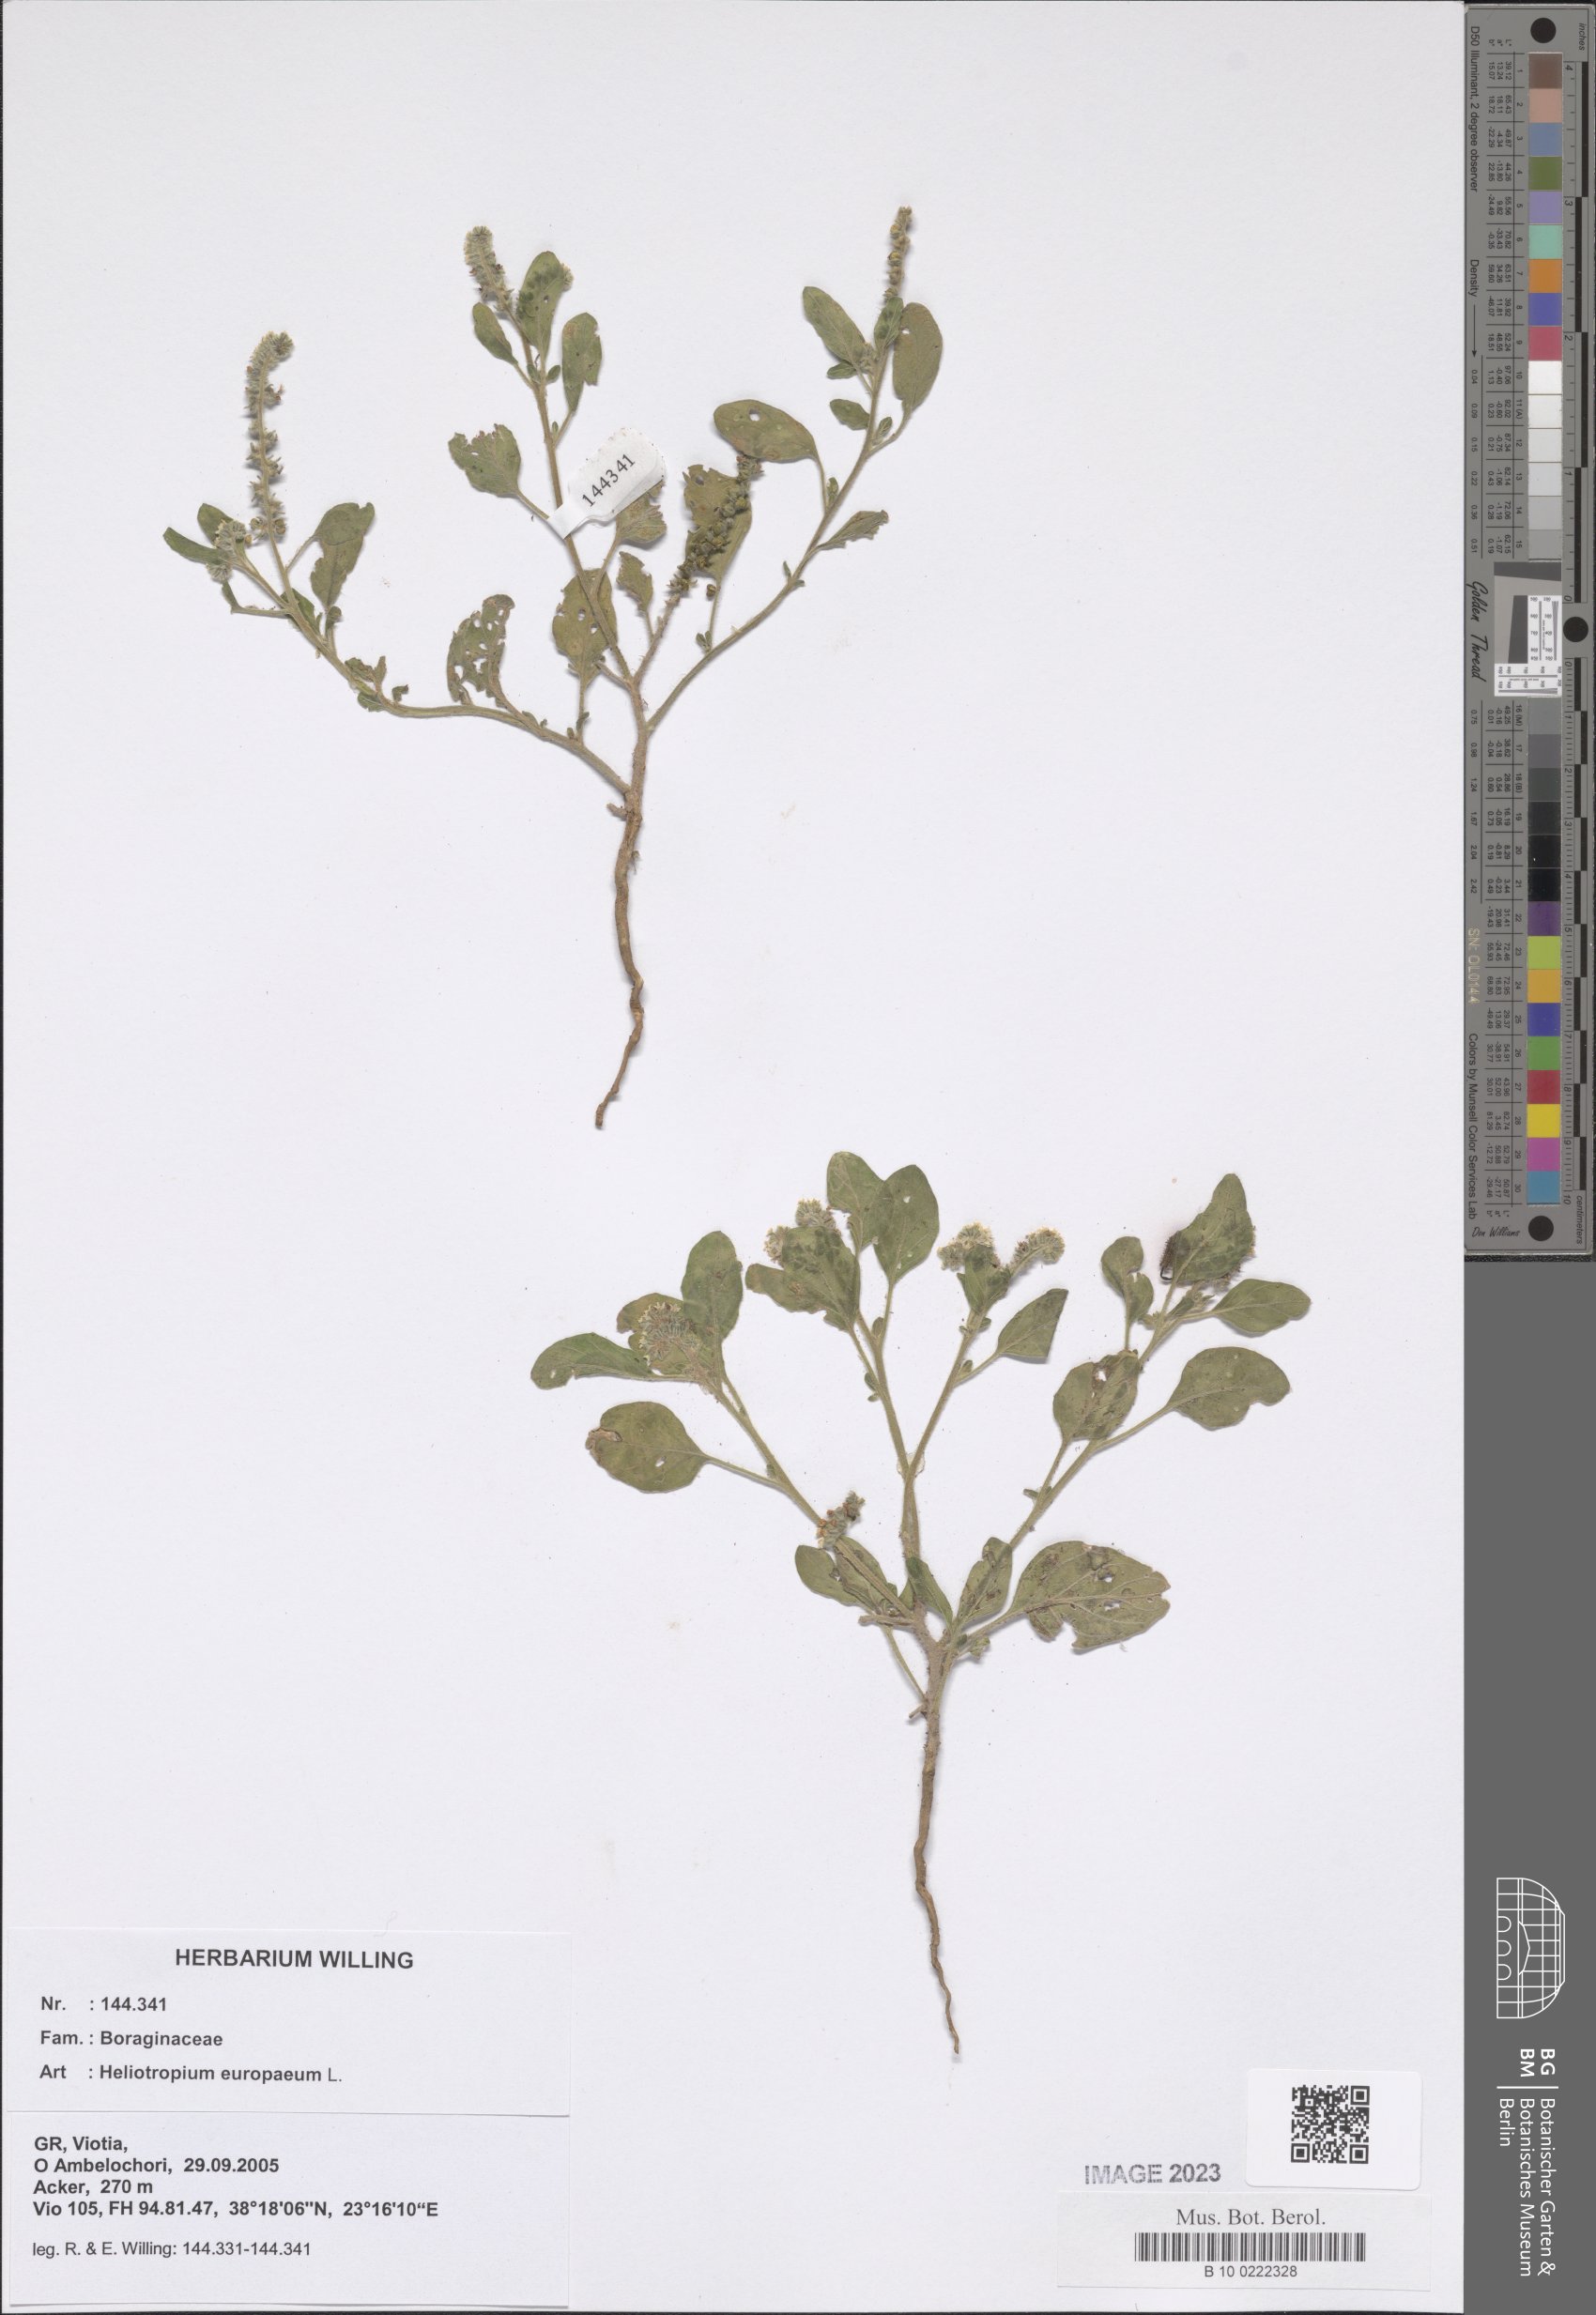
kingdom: Plantae
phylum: Tracheophyta
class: Magnoliopsida
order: Boraginales
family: Heliotropiaceae
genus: Heliotropium
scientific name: Heliotropium europaeum
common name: European heliotrope
